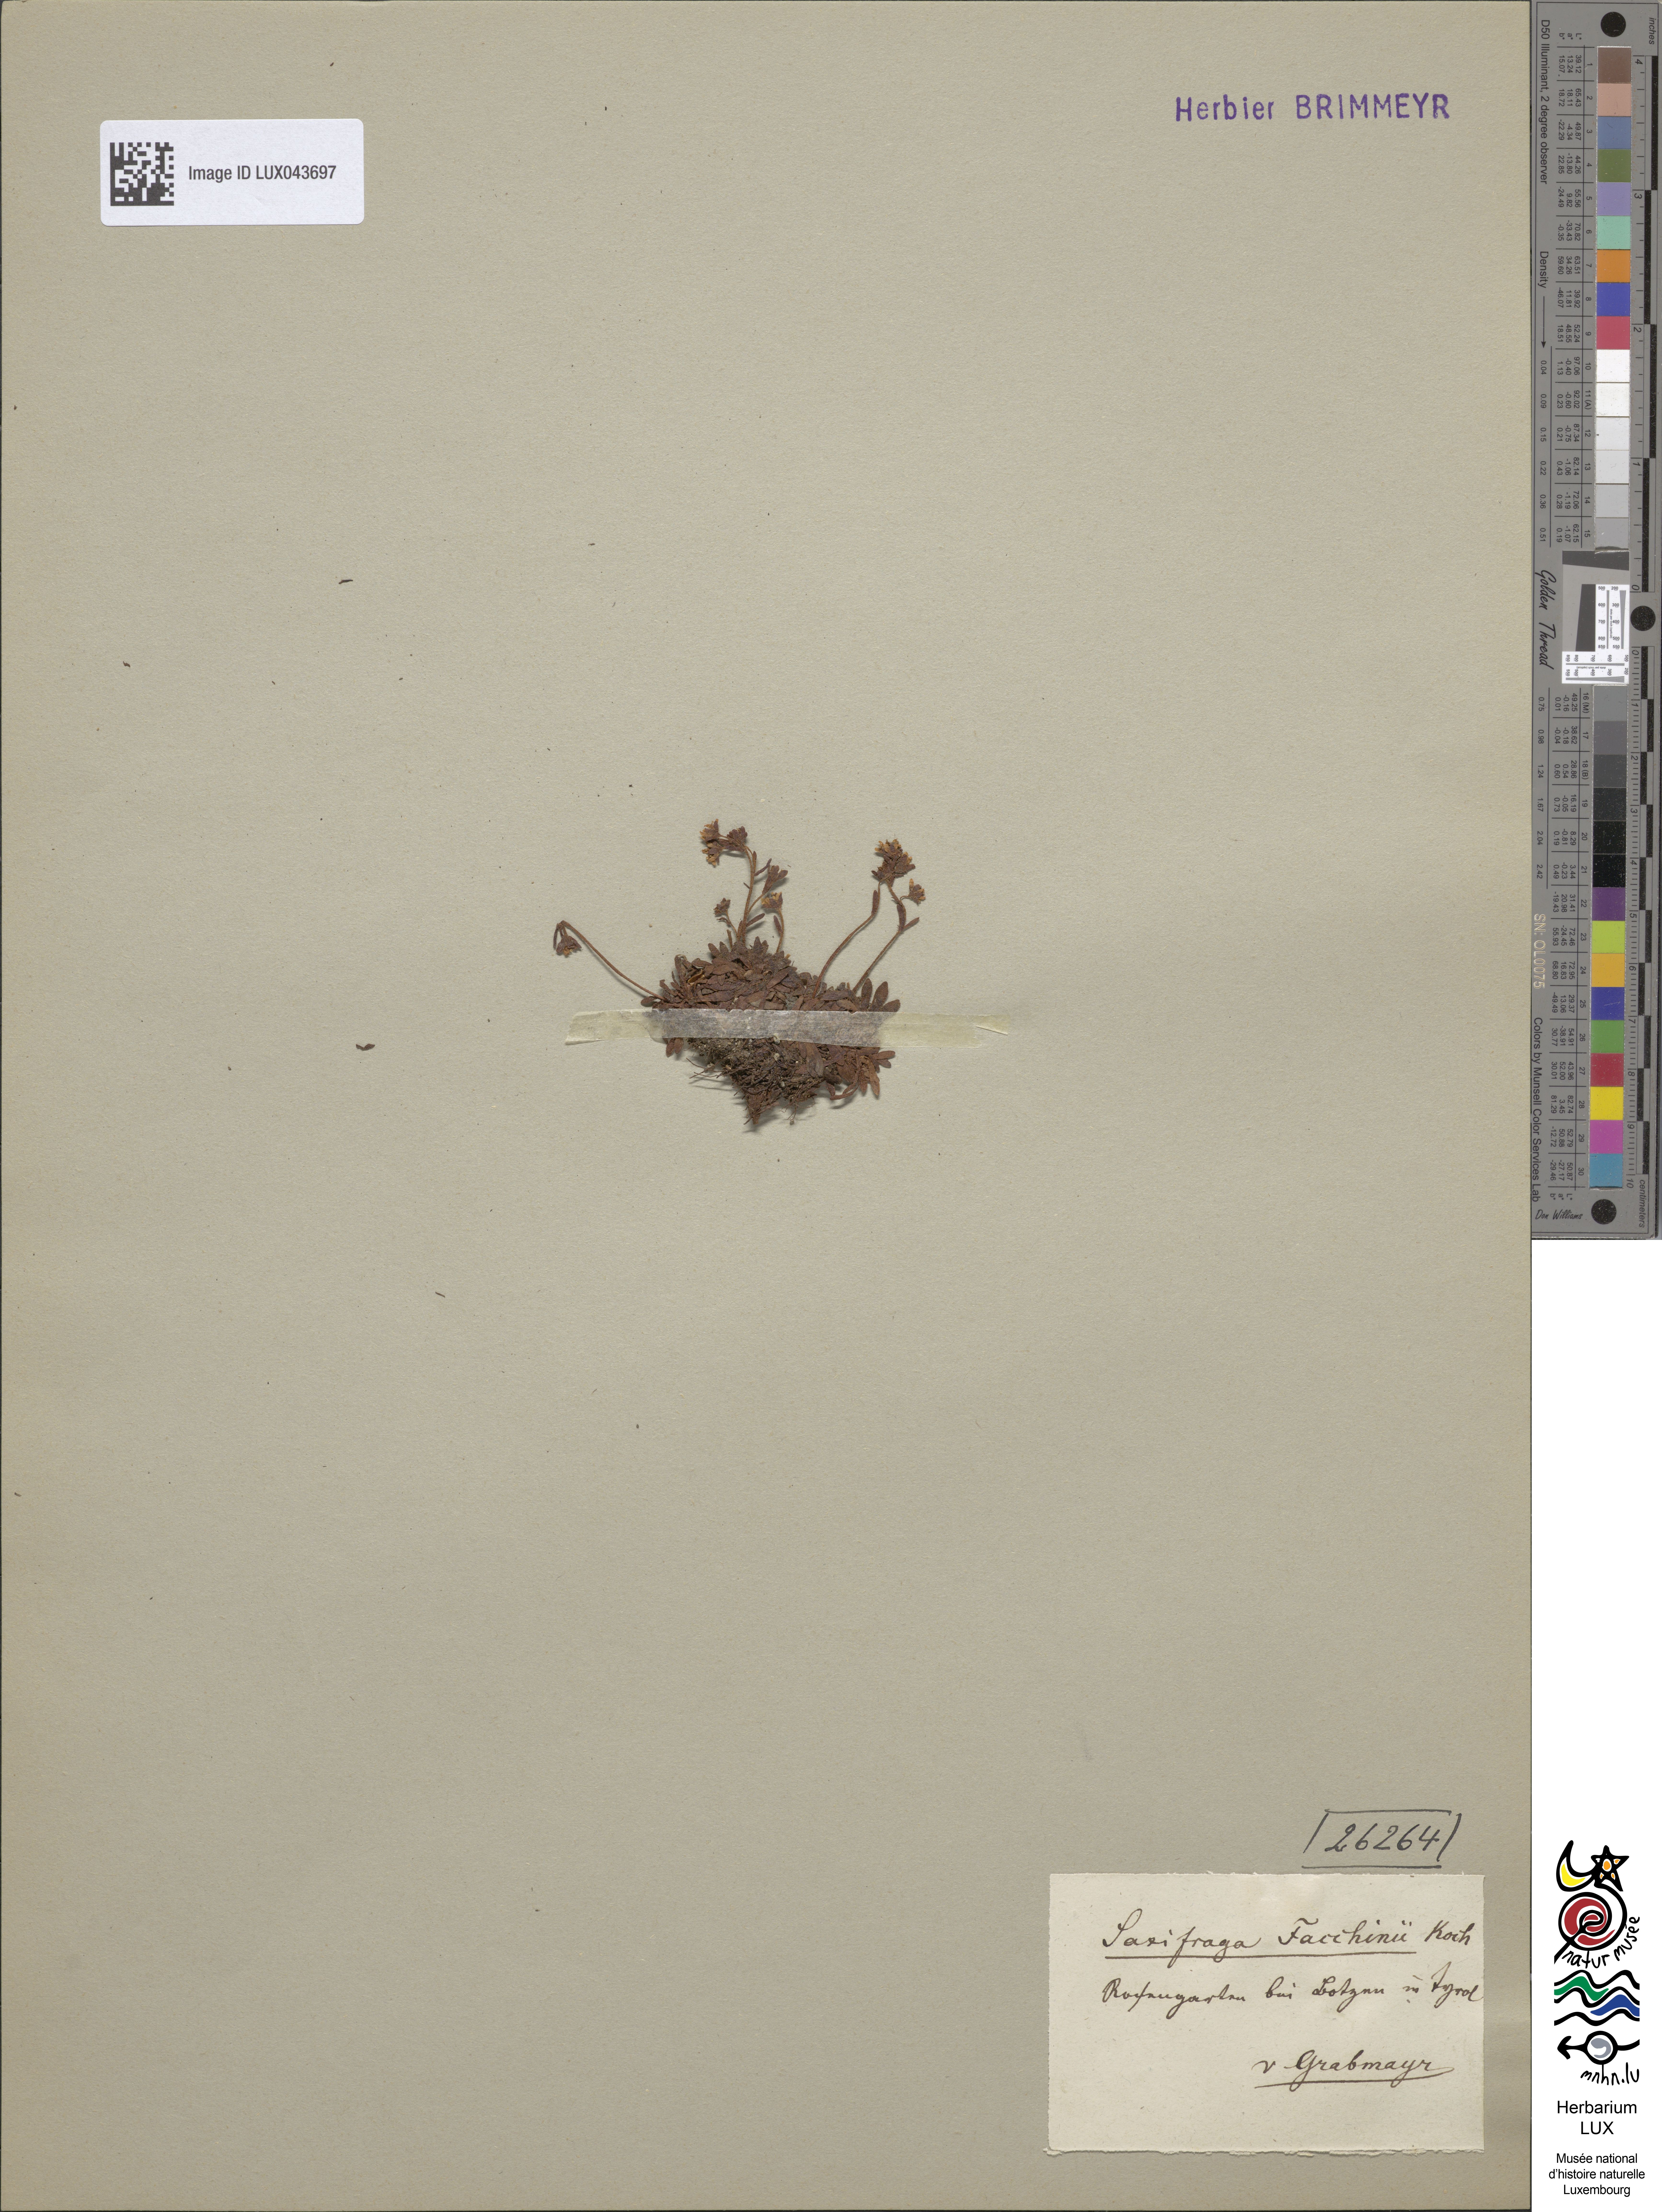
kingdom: Plantae
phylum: Tracheophyta
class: Magnoliopsida
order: Saxifragales
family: Saxifragaceae
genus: Saxifraga
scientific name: Saxifraga facchinii
